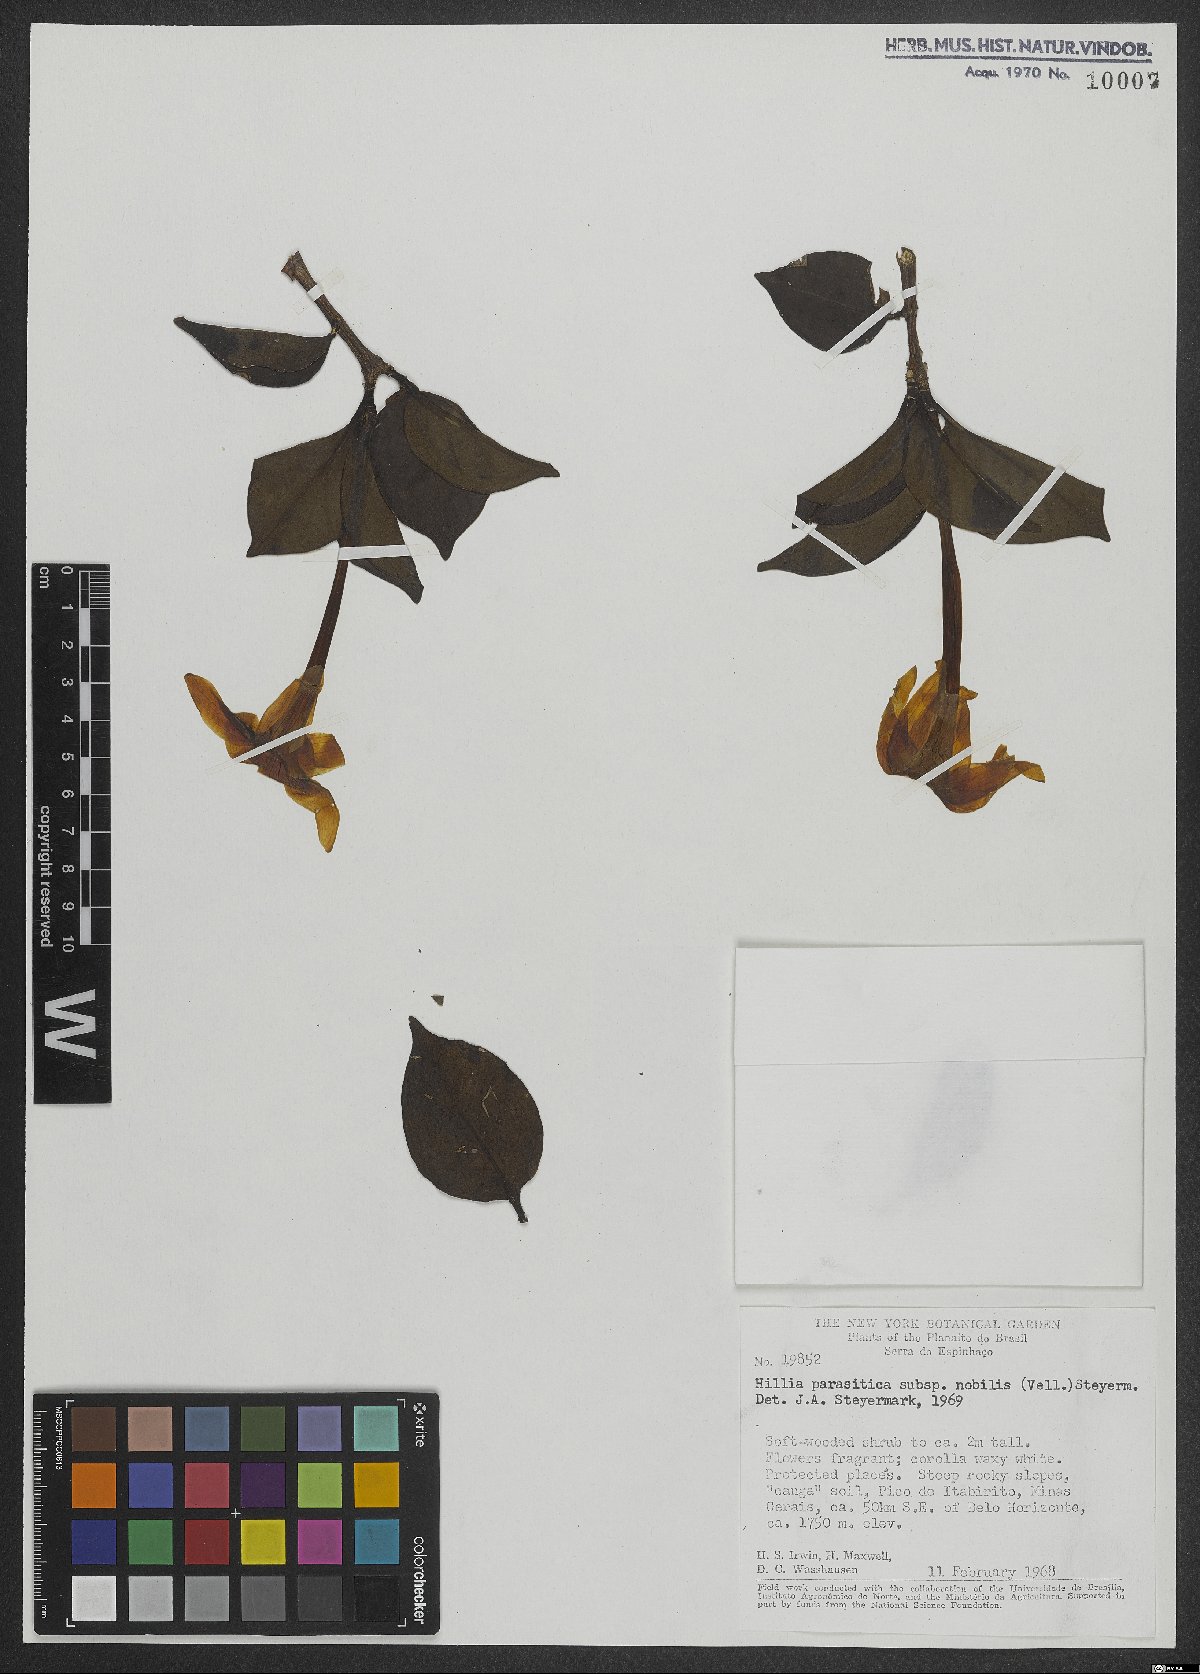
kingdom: Plantae
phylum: Tracheophyta
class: Magnoliopsida
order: Gentianales
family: Rubiaceae
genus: Hillia
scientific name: Hillia parasitica
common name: Morning star
